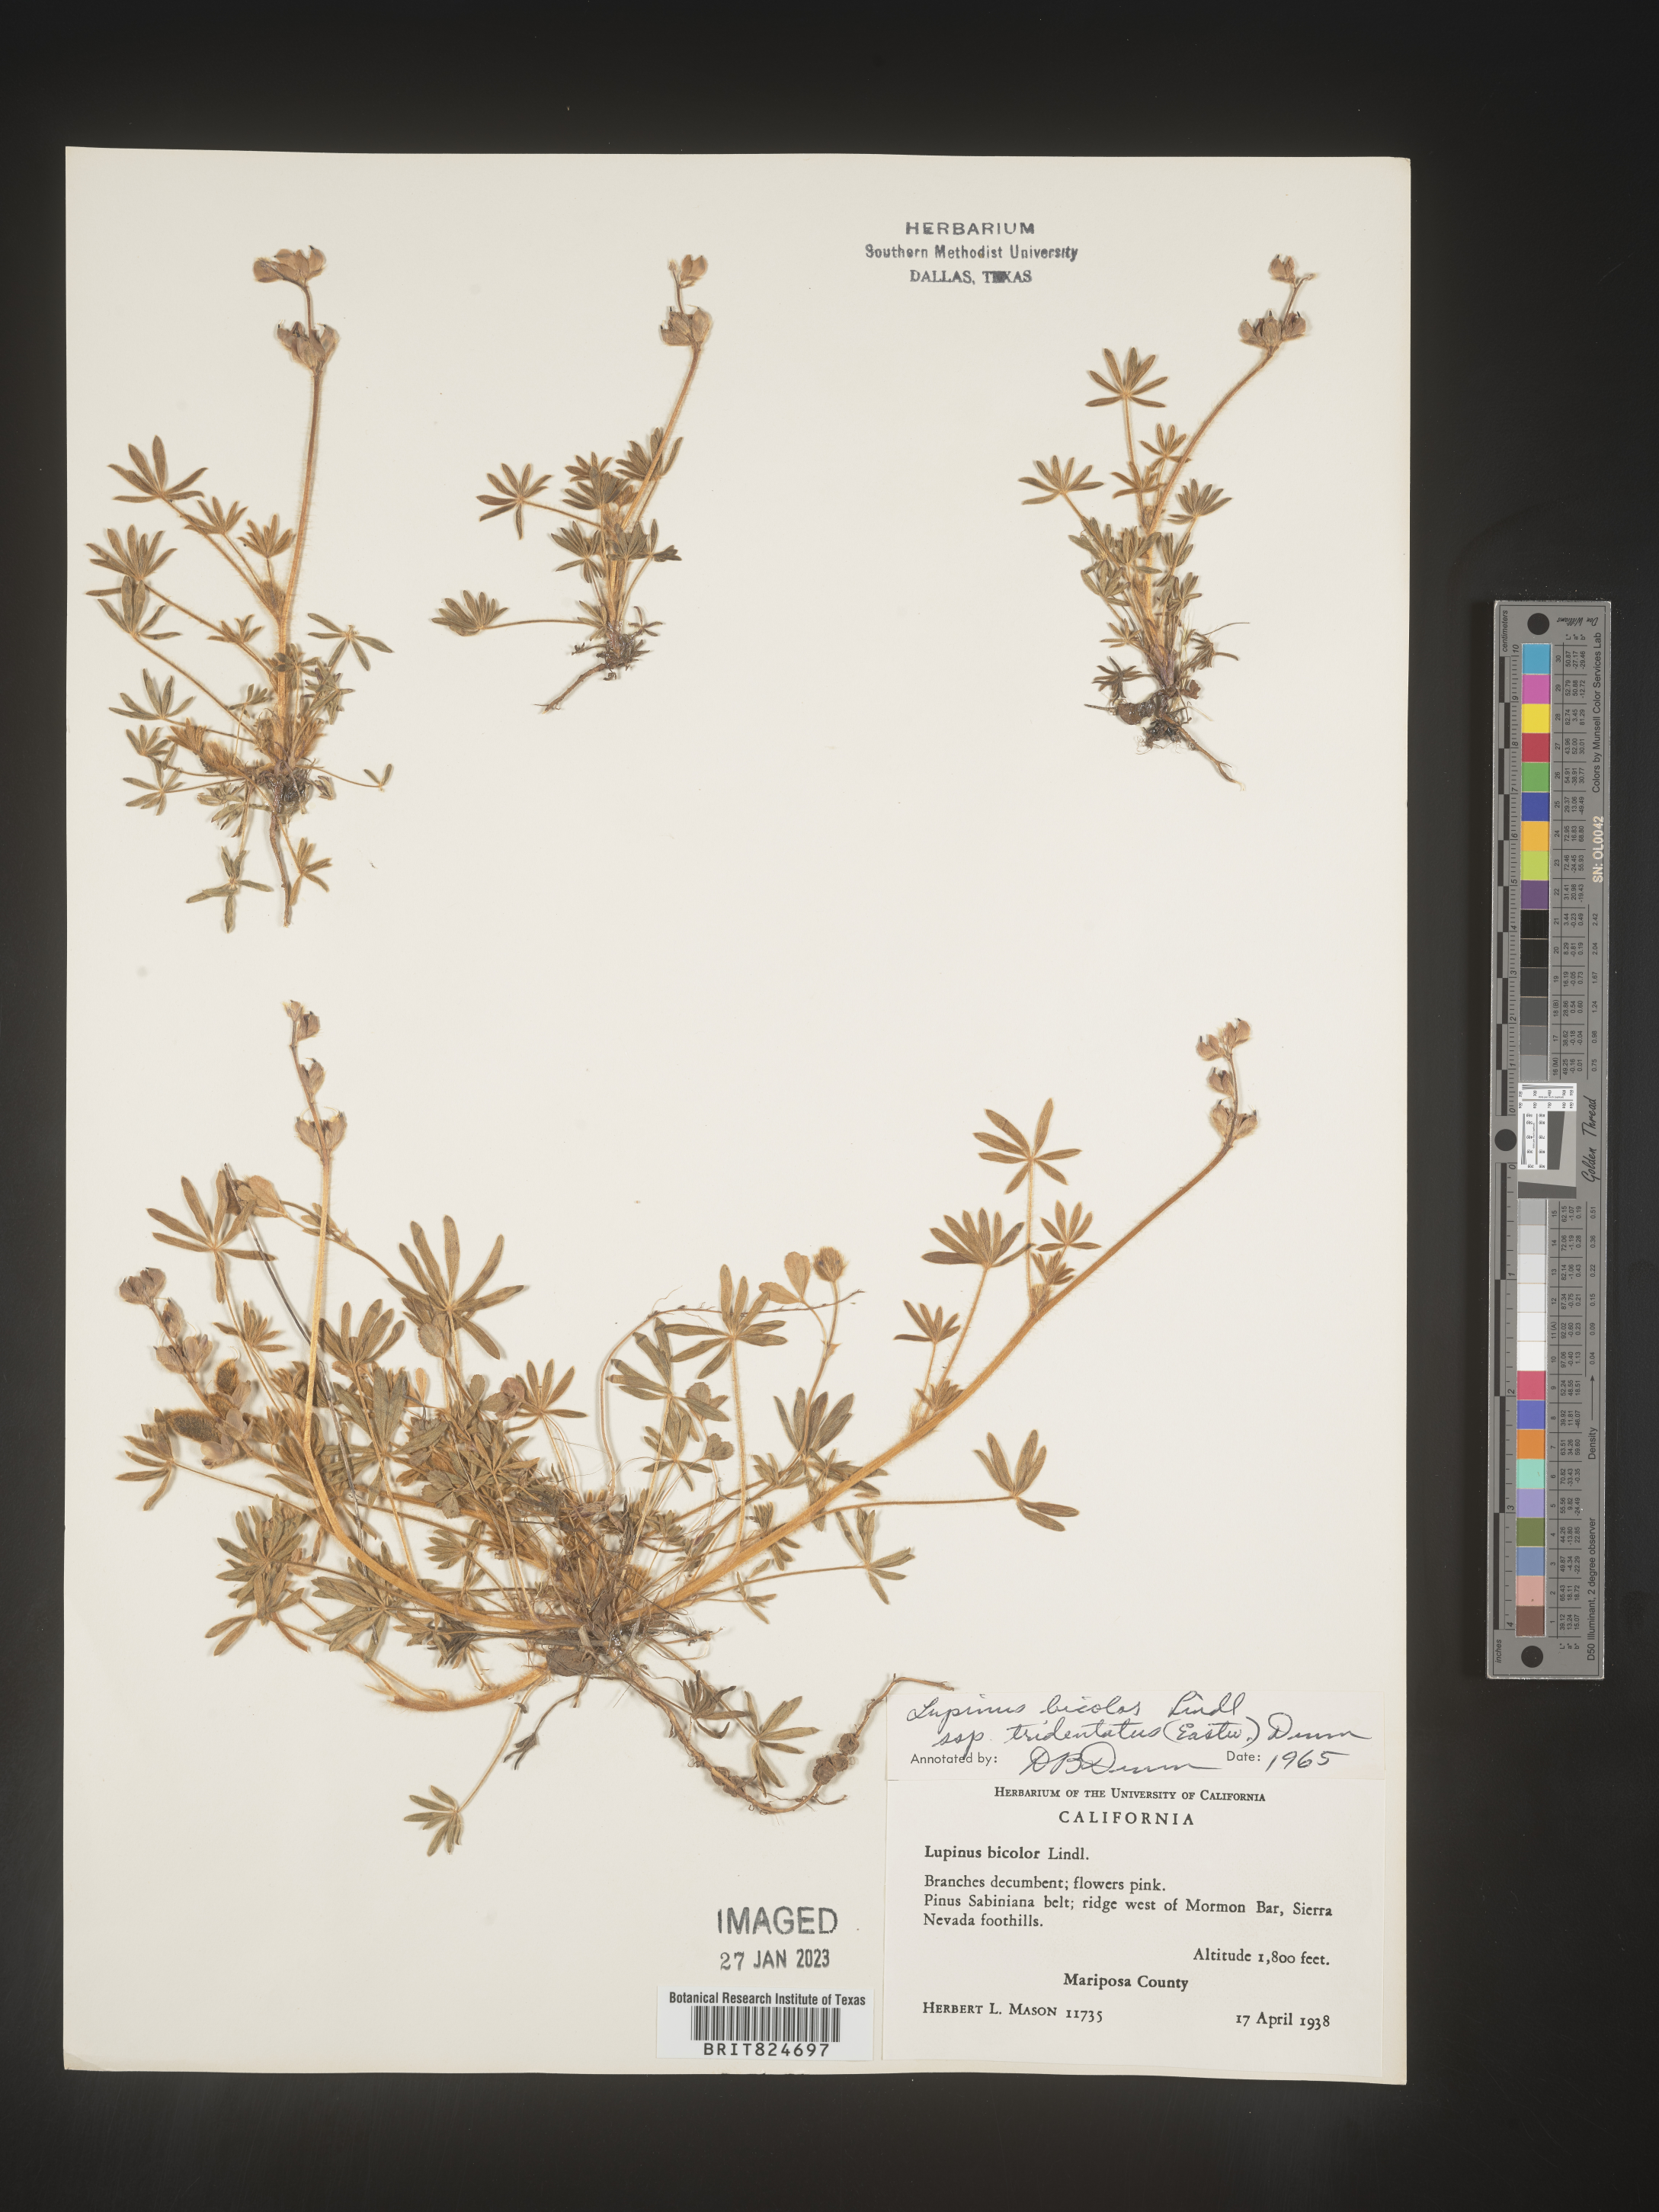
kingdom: Plantae
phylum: Tracheophyta
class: Magnoliopsida
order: Fabales
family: Fabaceae
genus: Lupinus
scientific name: Lupinus bicolor
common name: Miniature lupine
